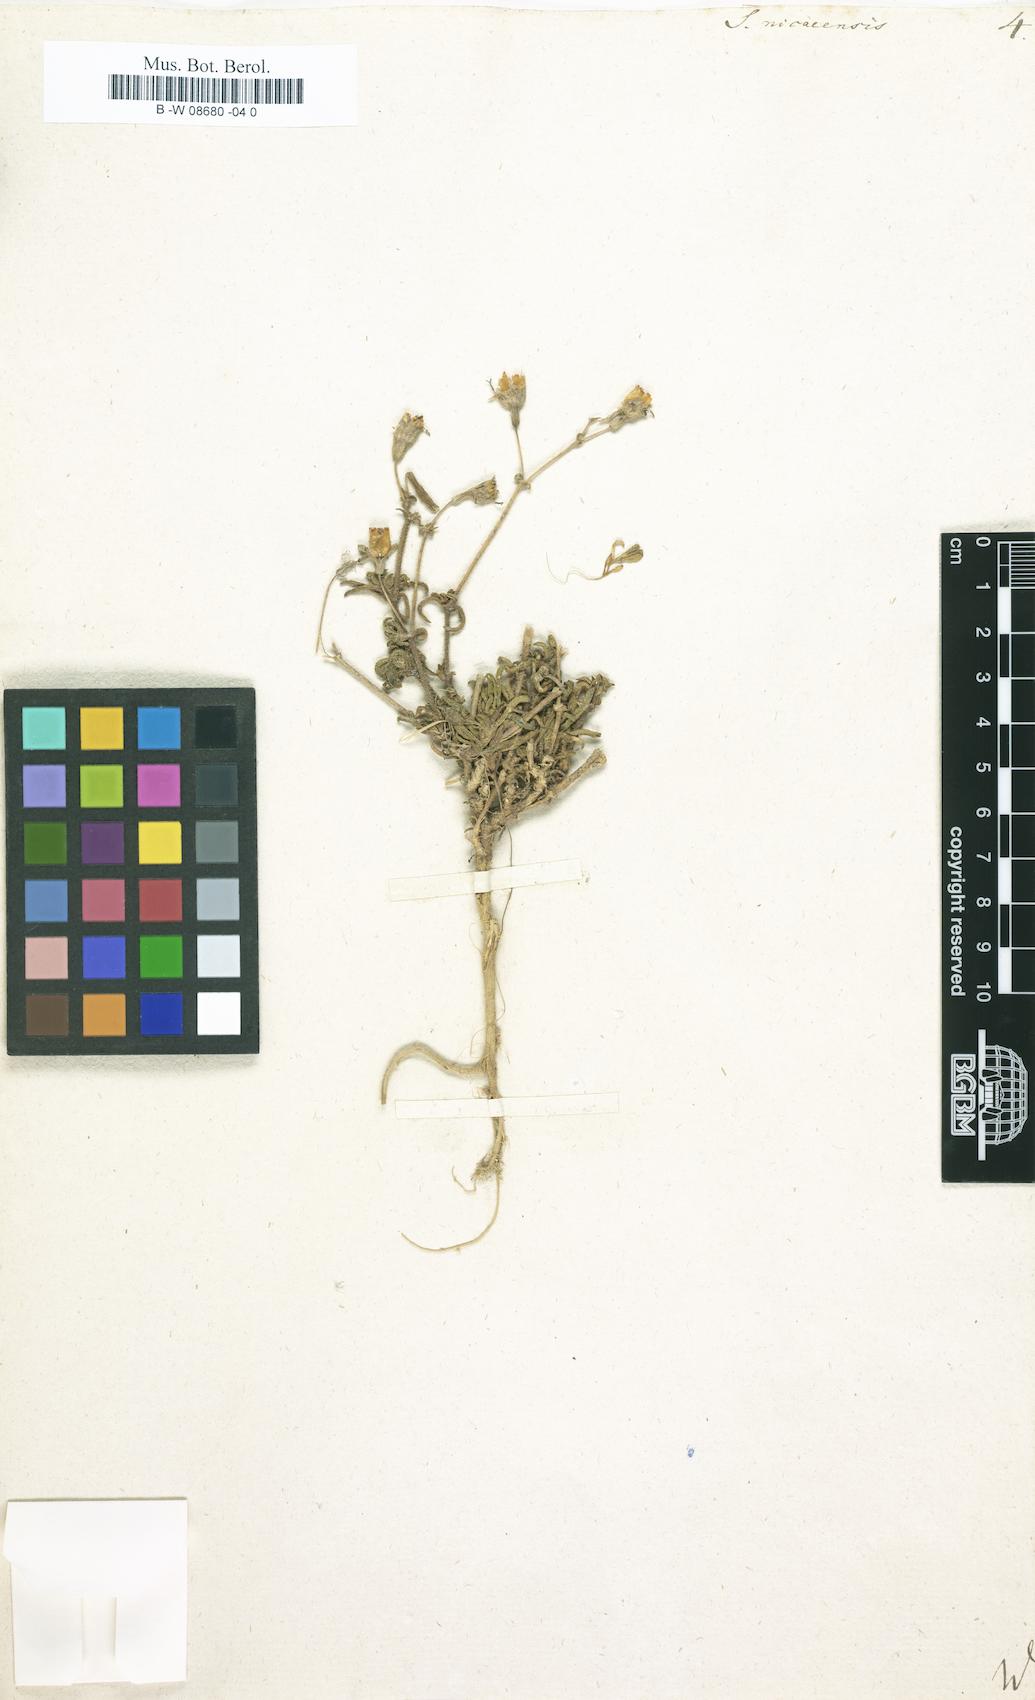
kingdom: Plantae
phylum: Tracheophyta
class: Magnoliopsida
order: Caryophyllales
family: Caryophyllaceae
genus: Silene
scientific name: Silene nicaeensis
